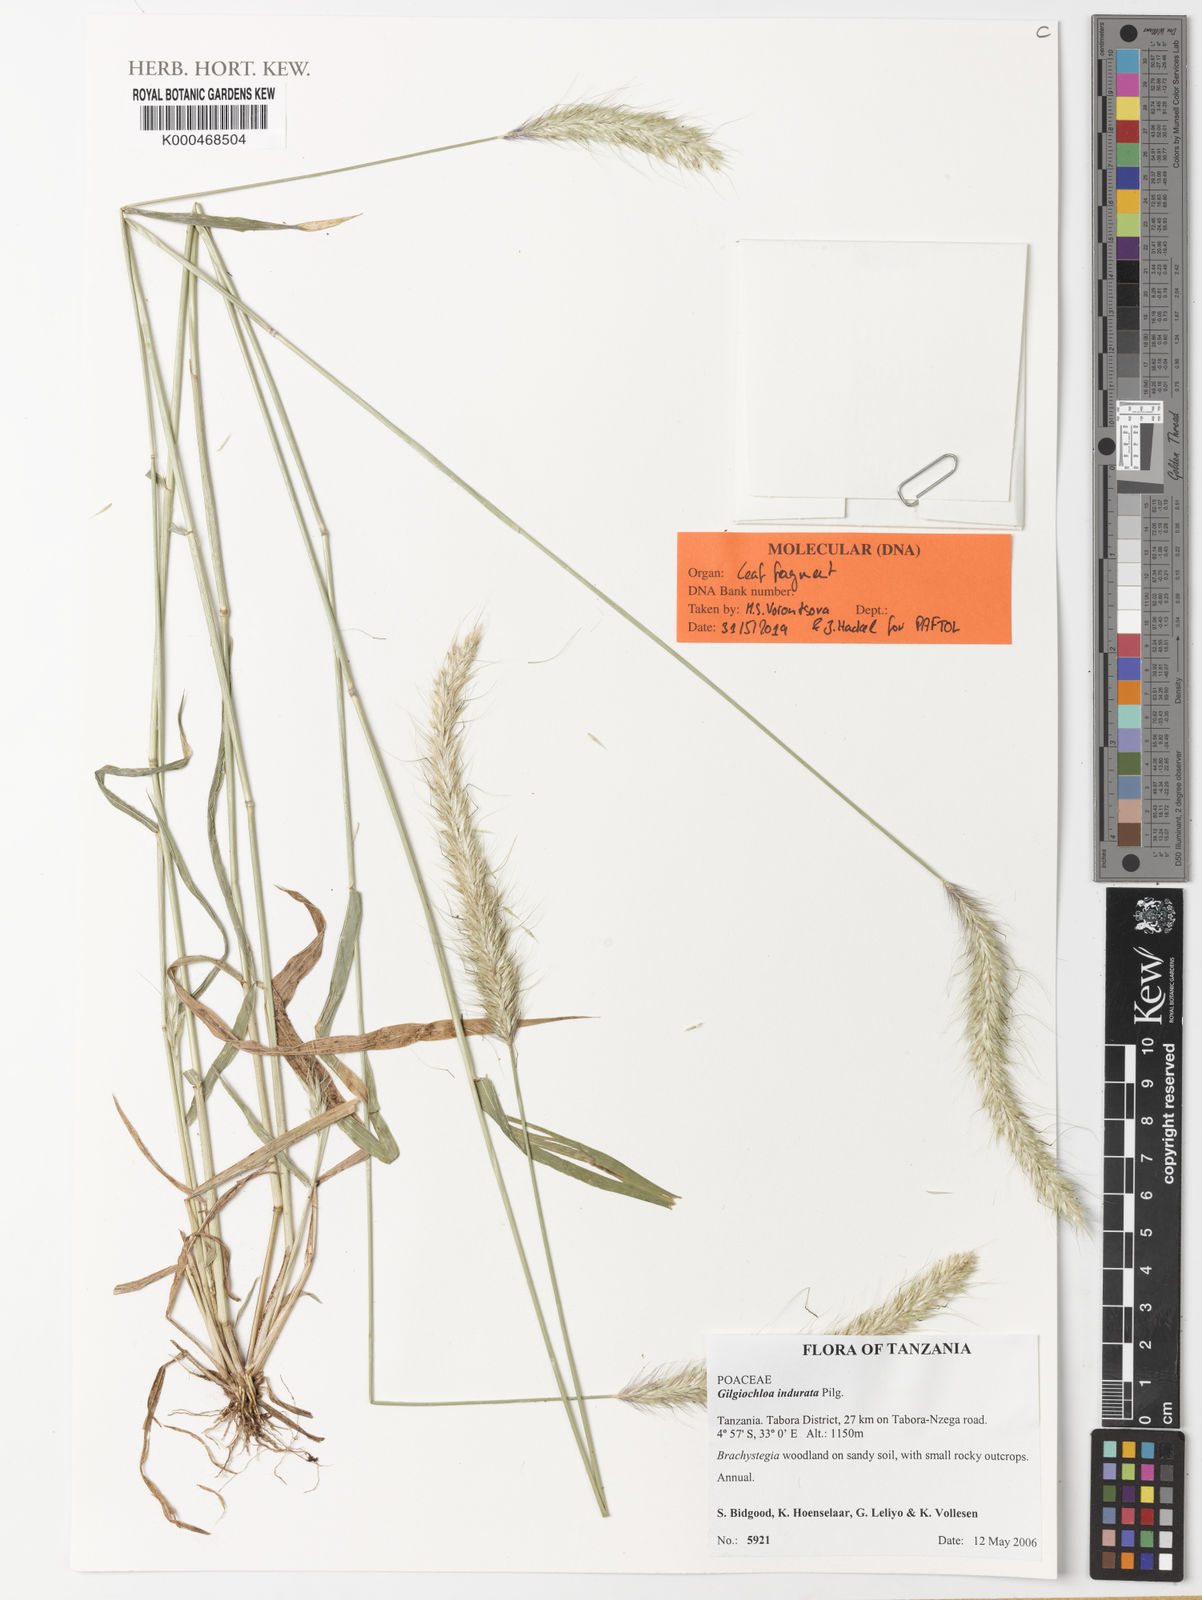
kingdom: Plantae
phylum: Tracheophyta
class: Liliopsida
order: Poales
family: Poaceae
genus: Gilgiochloa
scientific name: Gilgiochloa indurata
